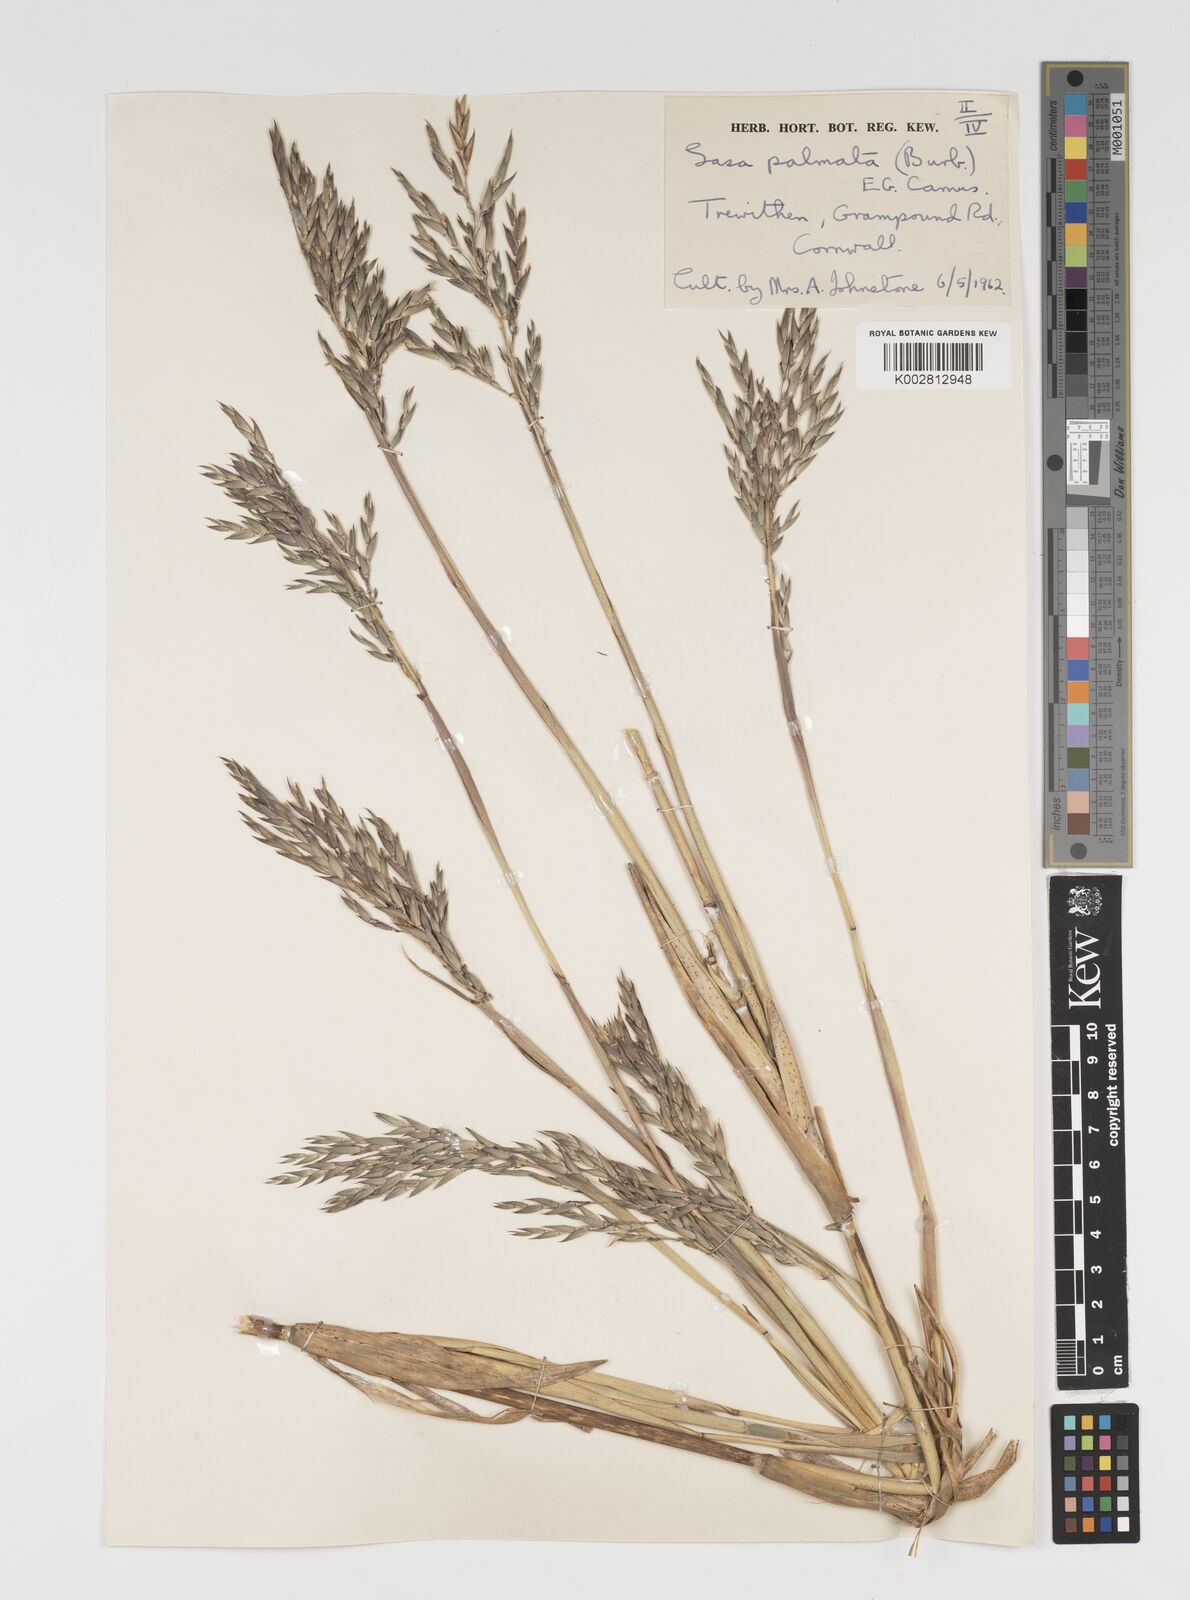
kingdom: Plantae
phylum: Tracheophyta
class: Liliopsida
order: Poales
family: Poaceae
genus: Sasa
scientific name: Sasa palmata
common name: Broad-leaved bamboo
